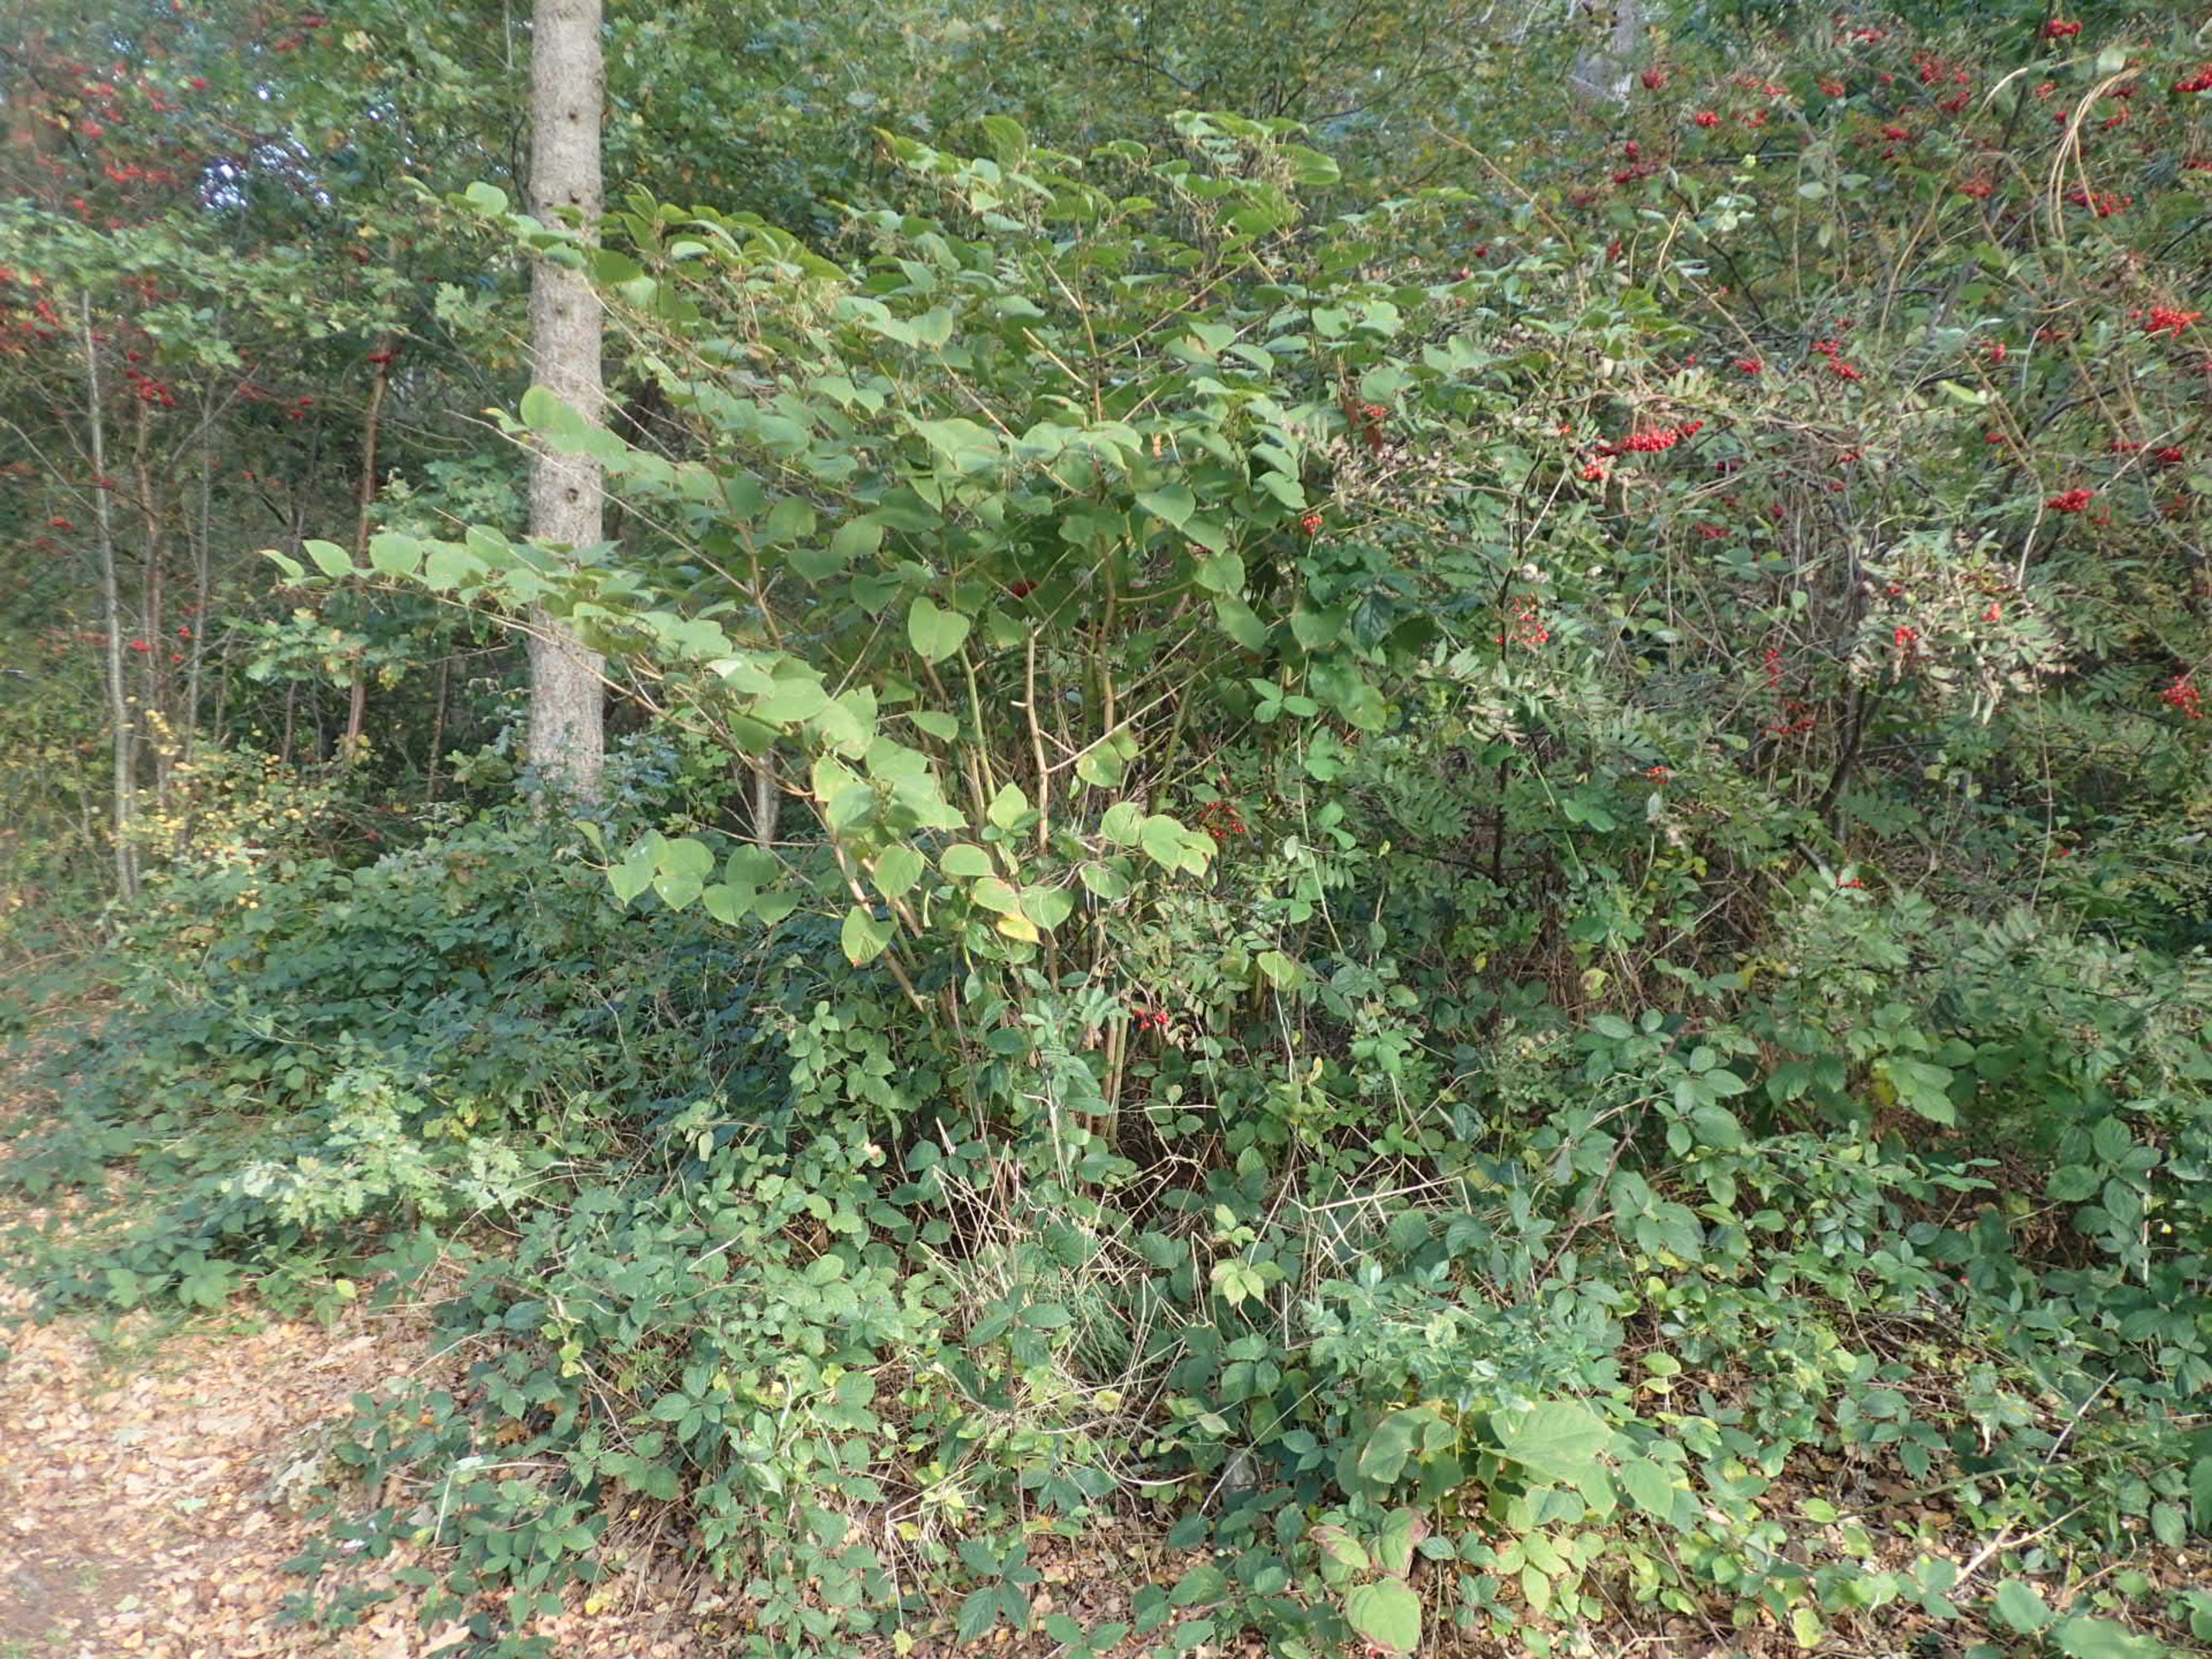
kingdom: Plantae
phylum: Tracheophyta
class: Magnoliopsida
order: Caryophyllales
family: Polygonaceae
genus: Reynoutria
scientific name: Reynoutria japonica
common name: Japan-pileurt
